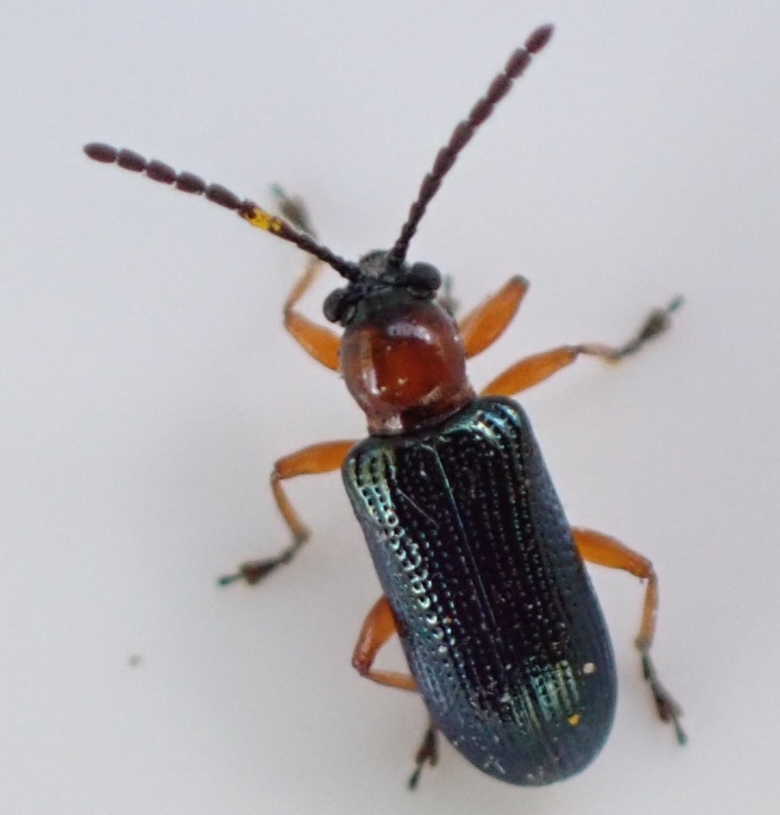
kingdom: Animalia
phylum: Arthropoda
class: Insecta
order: Coleoptera
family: Chrysomelidae
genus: Oulema
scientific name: Oulema
